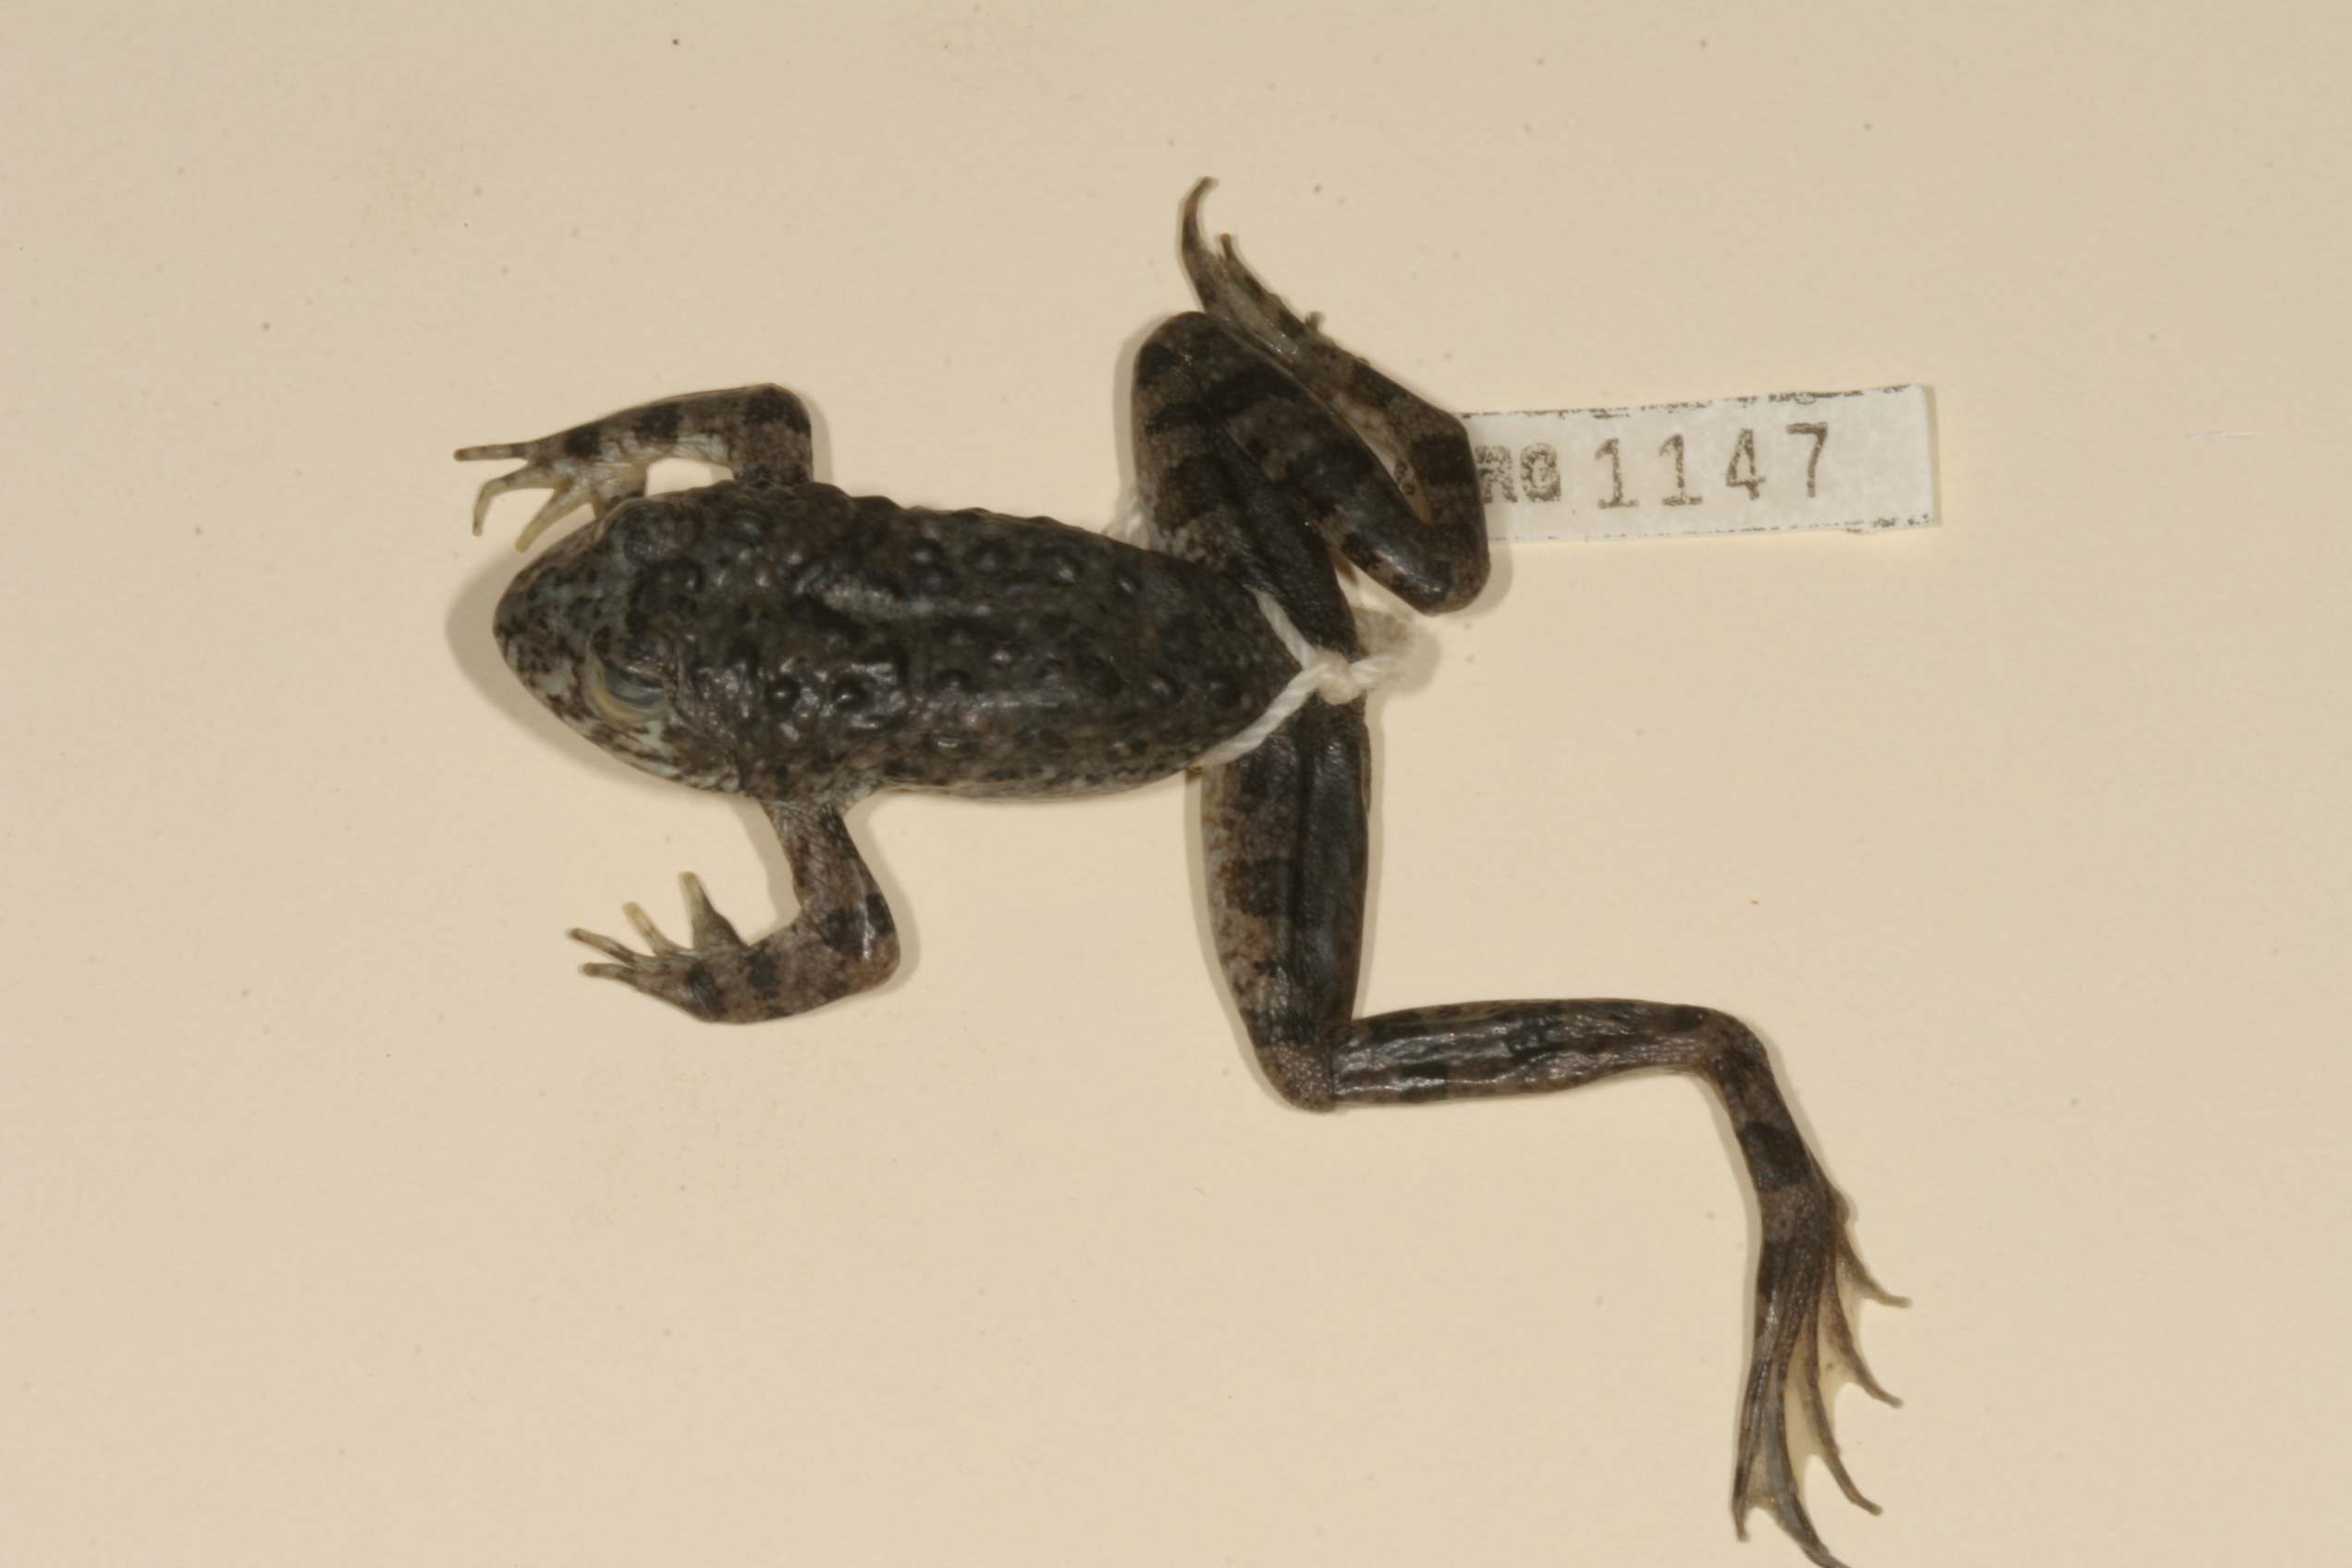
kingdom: Animalia
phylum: Chordata
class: Amphibia
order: Anura
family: Pyxicephalidae
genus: Amietia
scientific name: Amietia vertebralis
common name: Drakensberg stream frog
